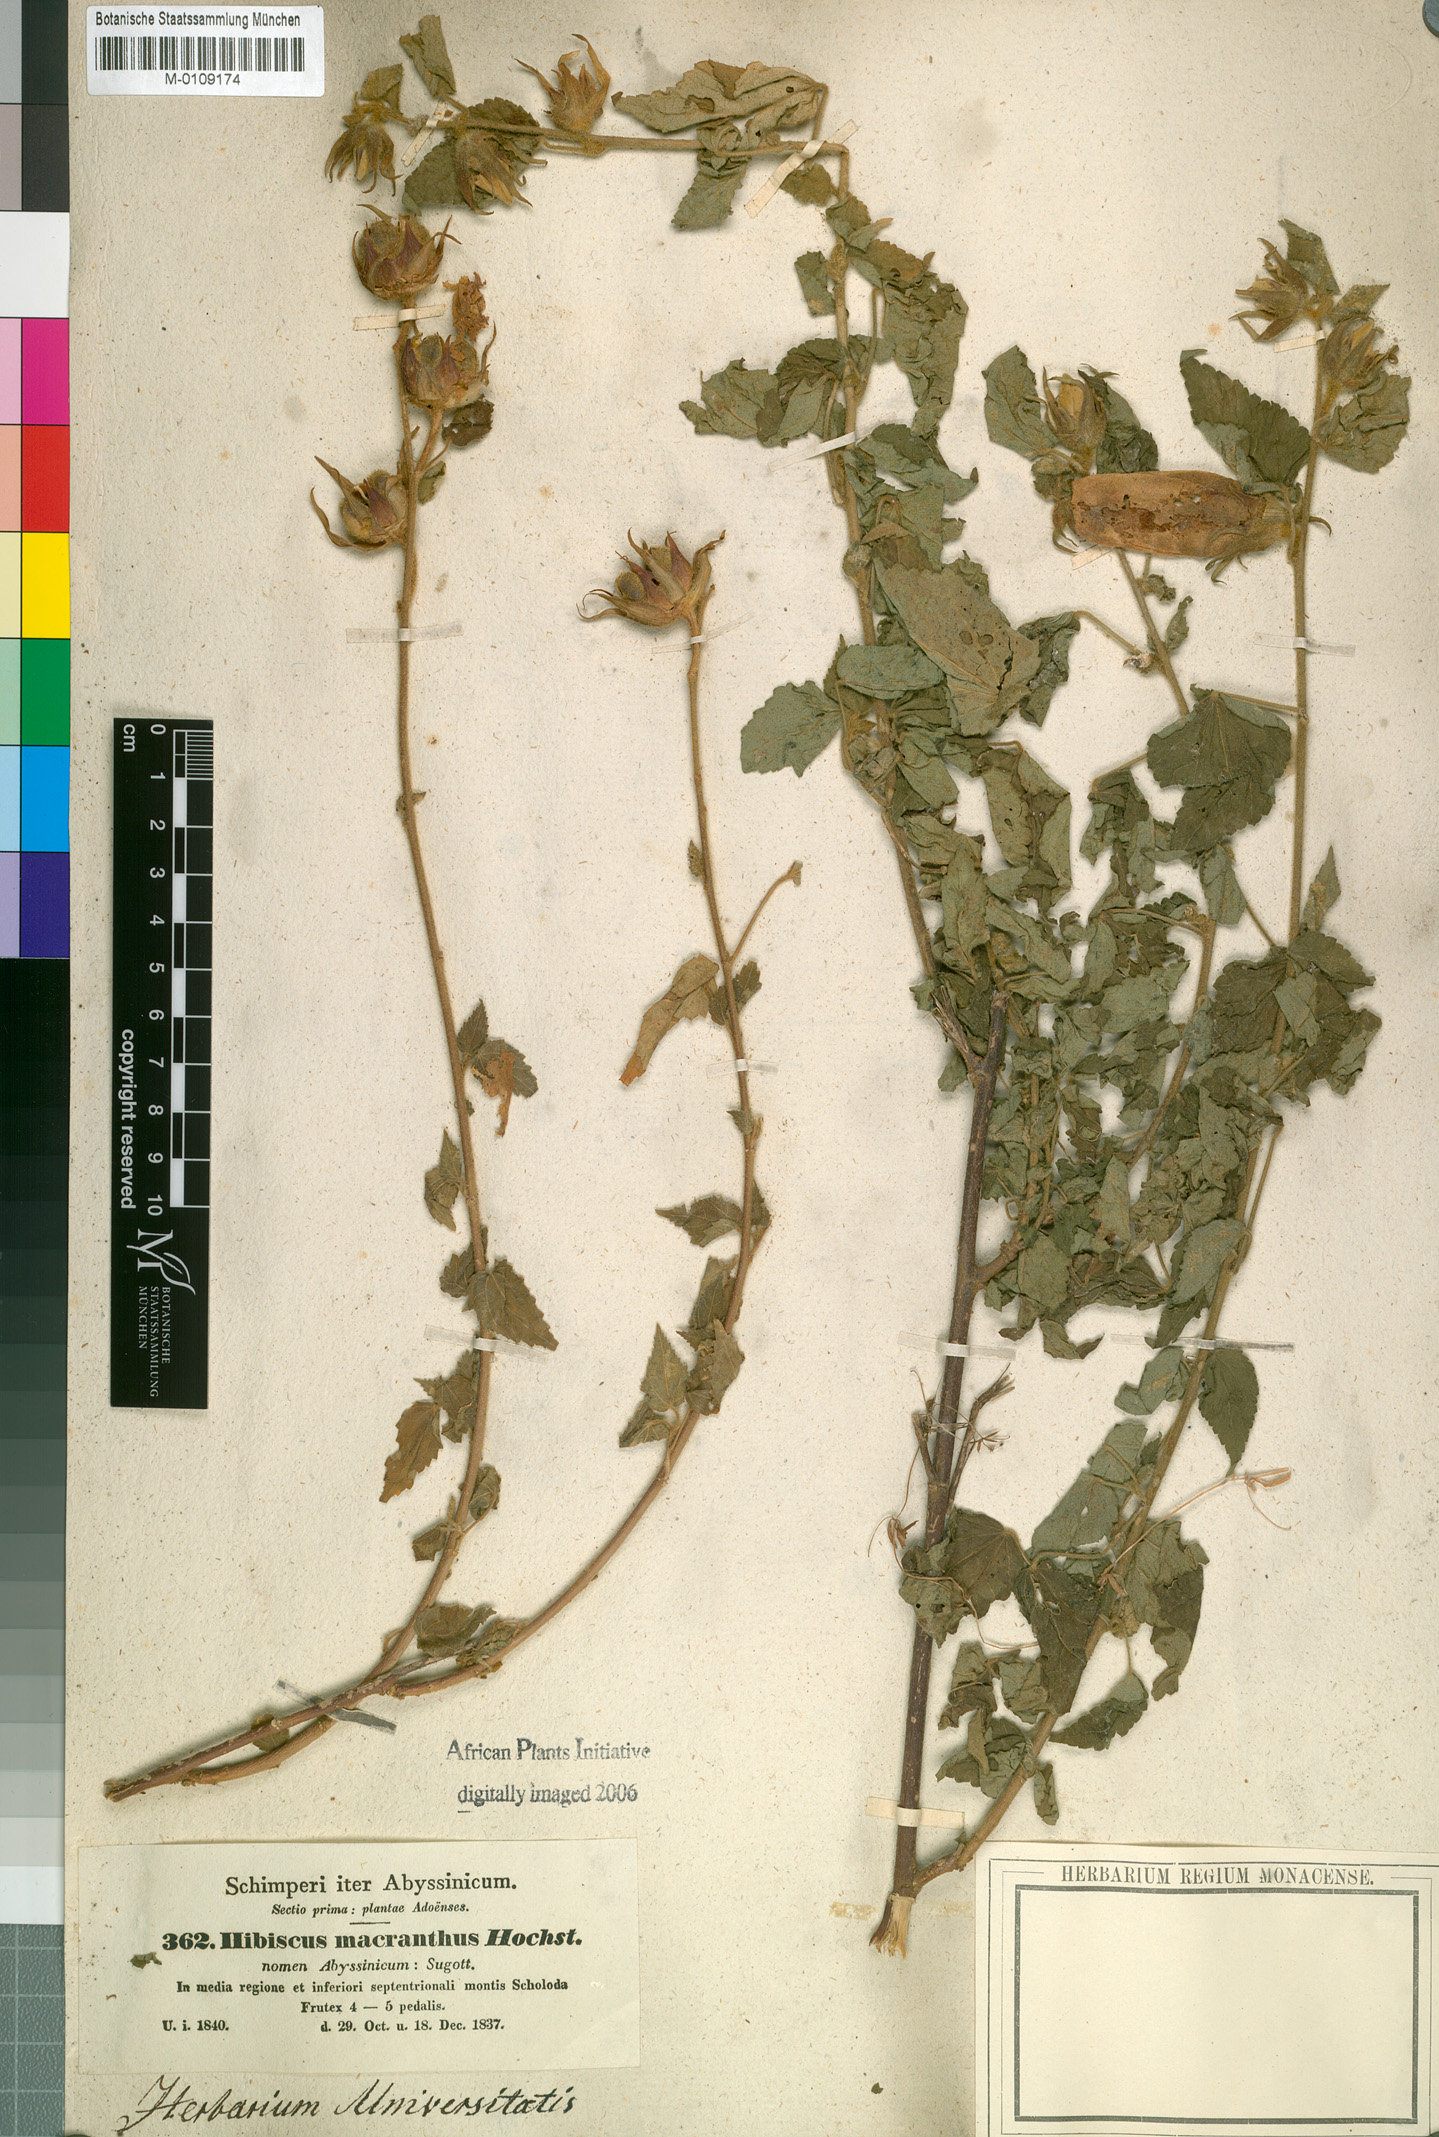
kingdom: Plantae
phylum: Tracheophyta
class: Magnoliopsida
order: Malvales
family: Malvaceae
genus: Hibiscus
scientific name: Hibiscus macranthus
